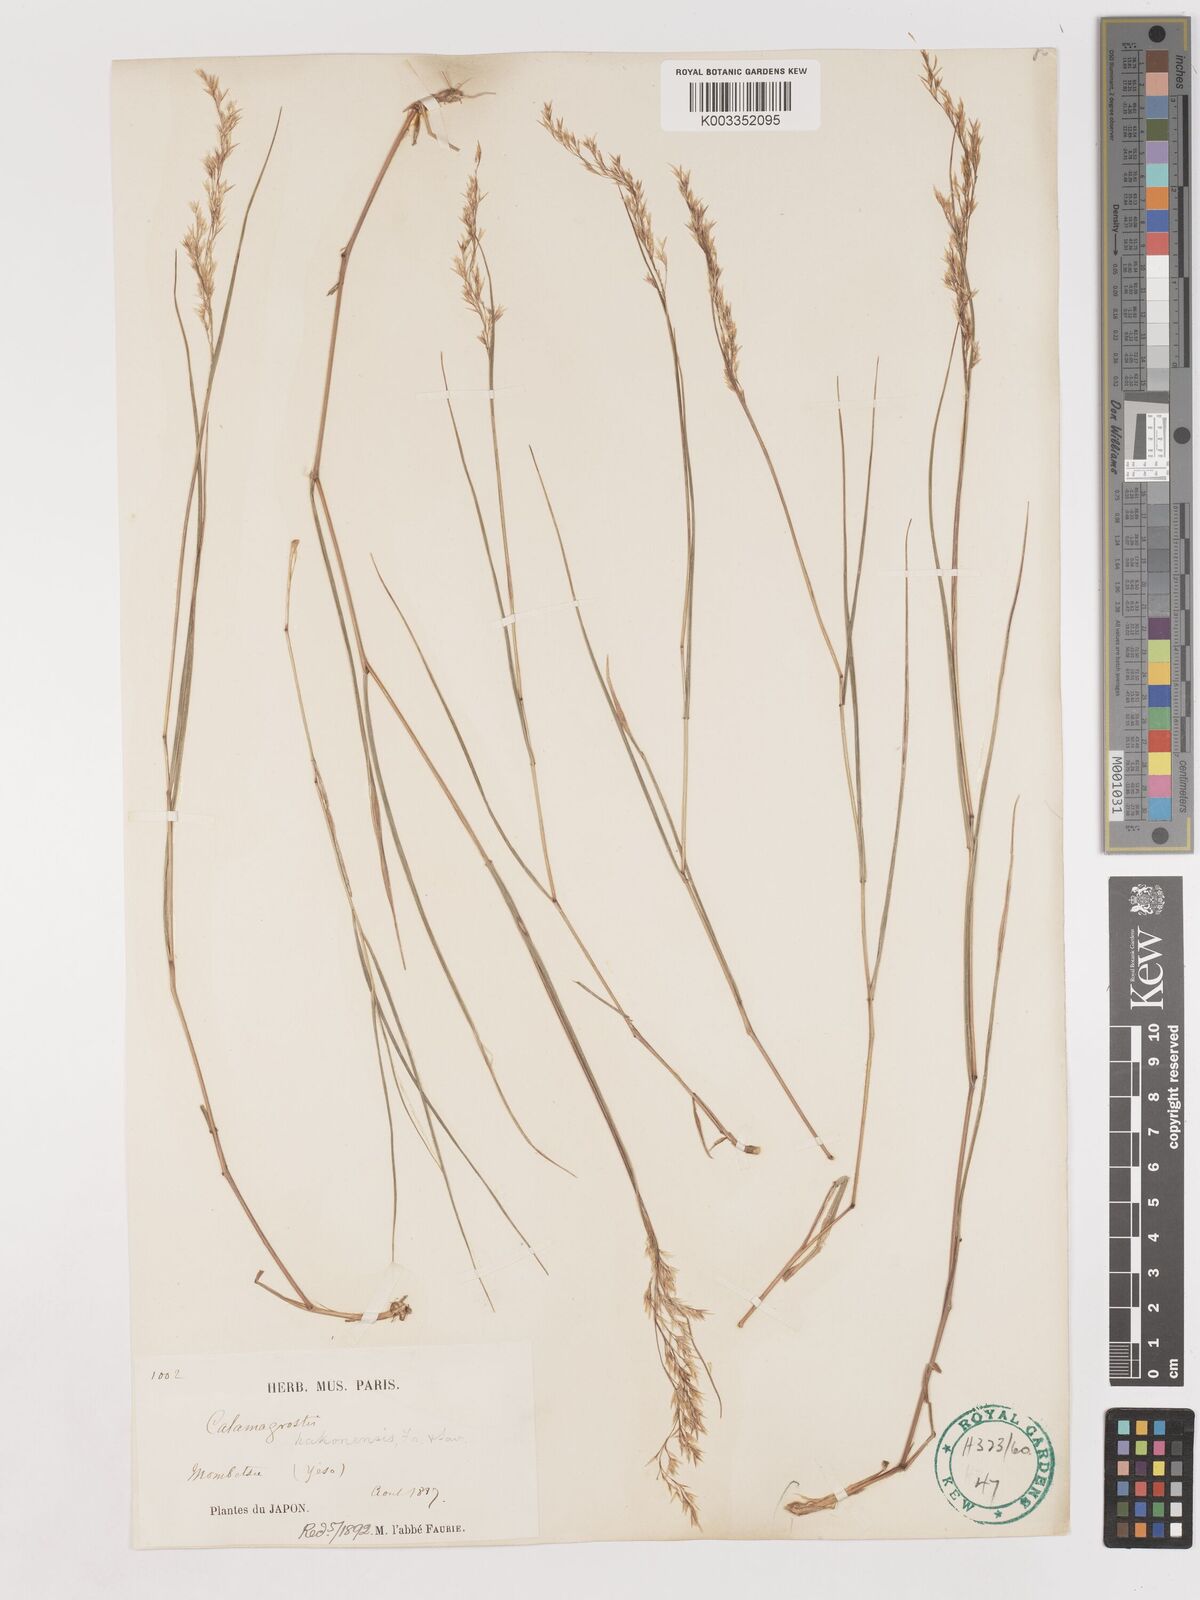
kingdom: Plantae
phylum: Tracheophyta
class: Liliopsida
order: Poales
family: Poaceae
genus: Calamagrostis
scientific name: Calamagrostis hakonensis
